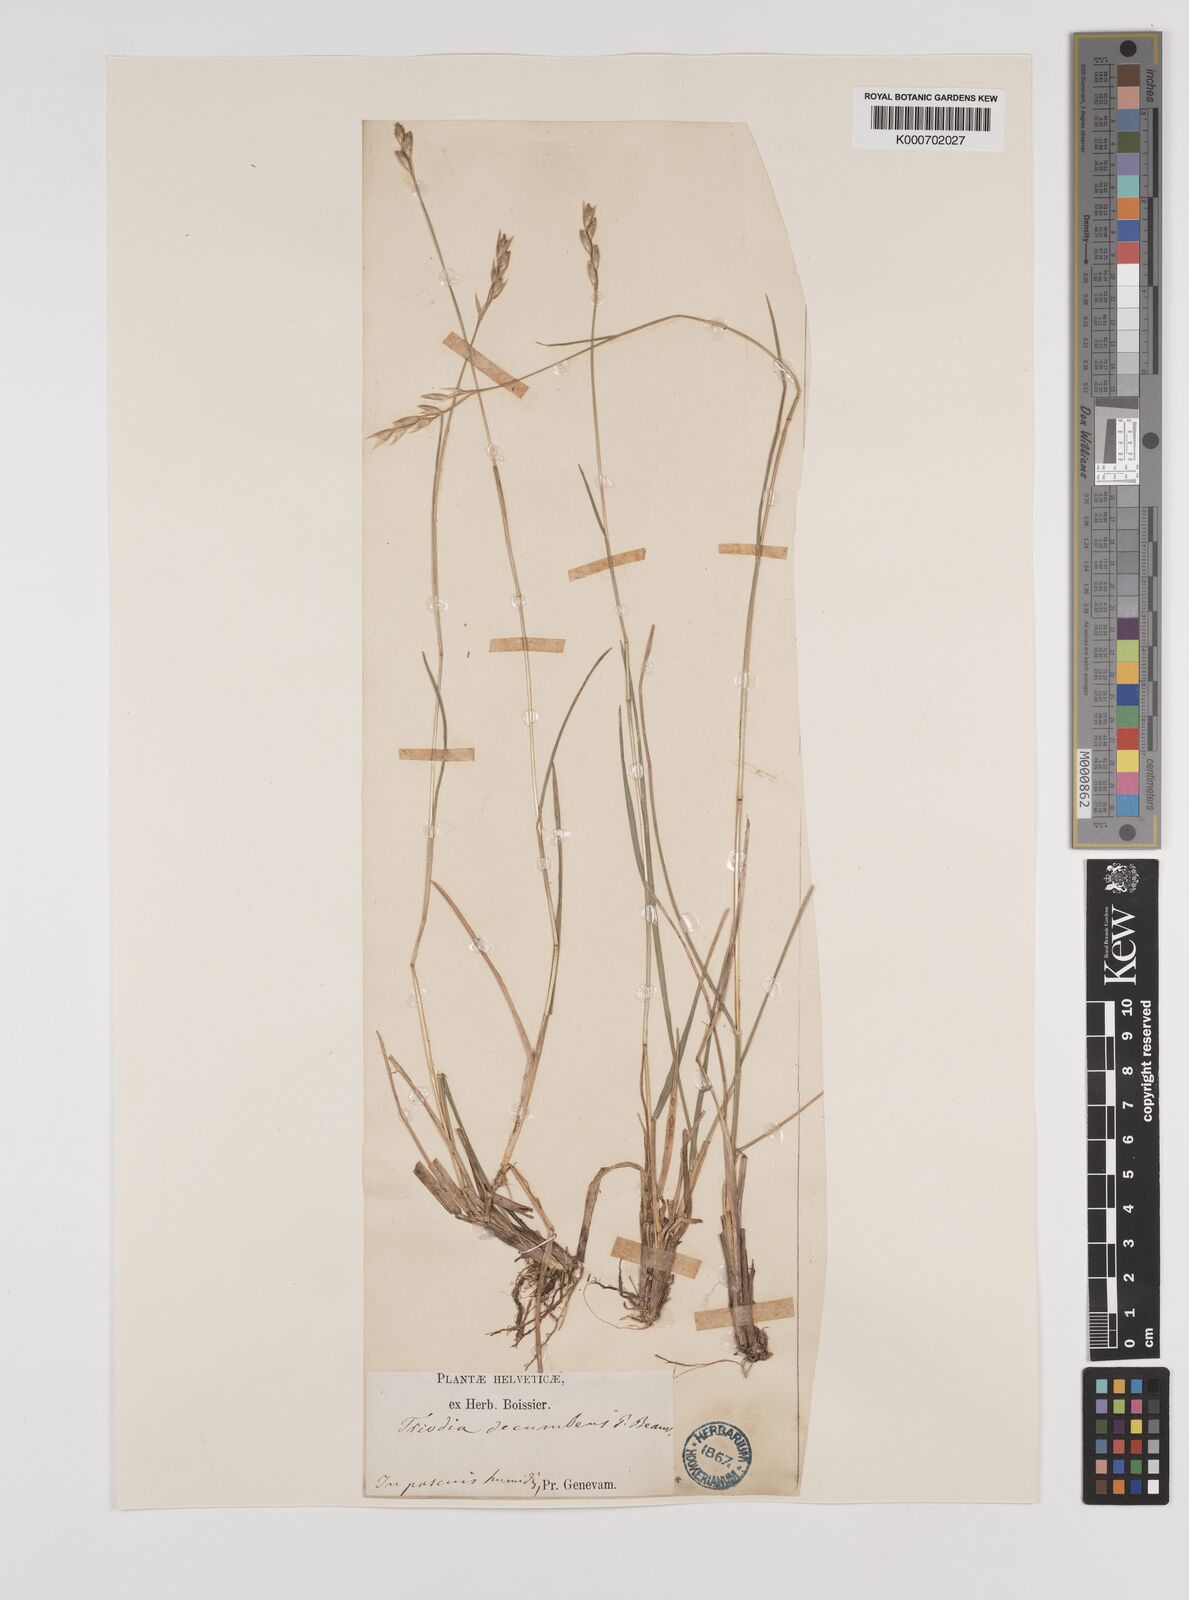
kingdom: Plantae
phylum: Tracheophyta
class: Liliopsida
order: Poales
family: Poaceae
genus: Danthonia
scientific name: Danthonia decumbens
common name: Common heathgrass
